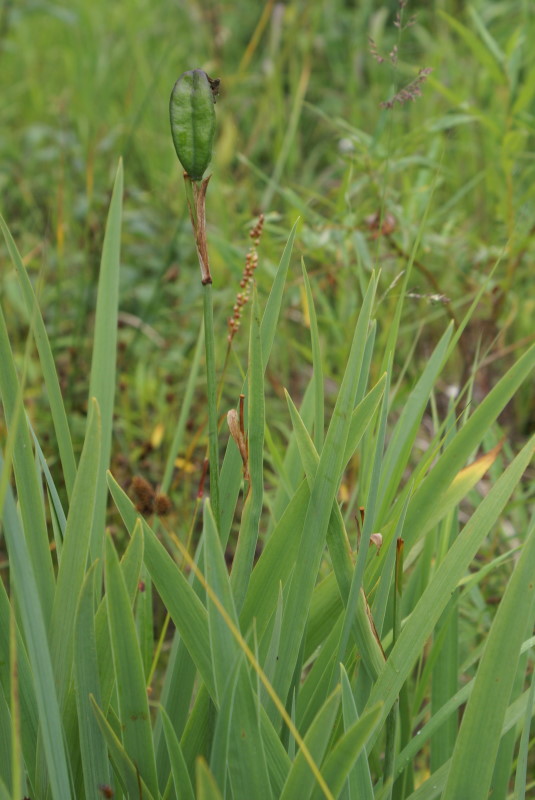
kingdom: Plantae
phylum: Tracheophyta
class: Liliopsida
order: Asparagales
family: Iridaceae
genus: Iris
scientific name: Iris setosa
